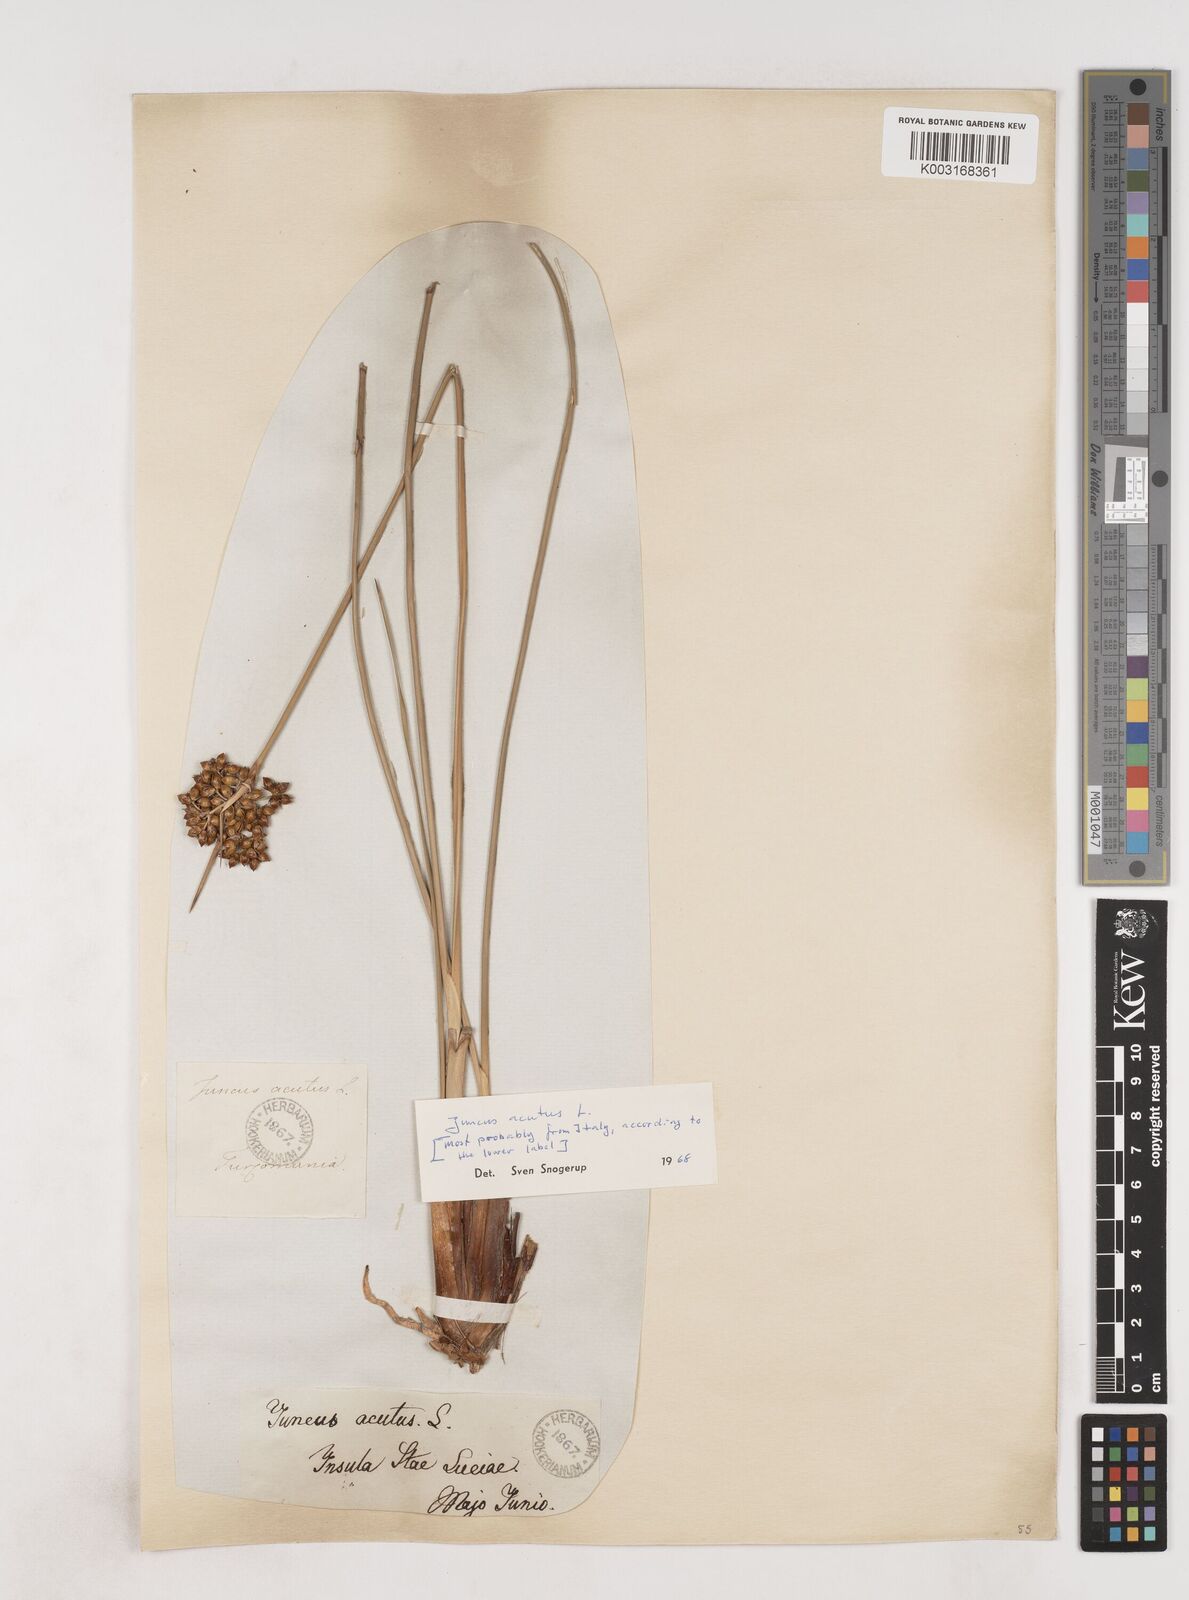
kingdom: Plantae
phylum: Tracheophyta
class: Liliopsida
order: Poales
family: Juncaceae
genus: Juncus
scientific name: Juncus acutus
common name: Sharp rush
